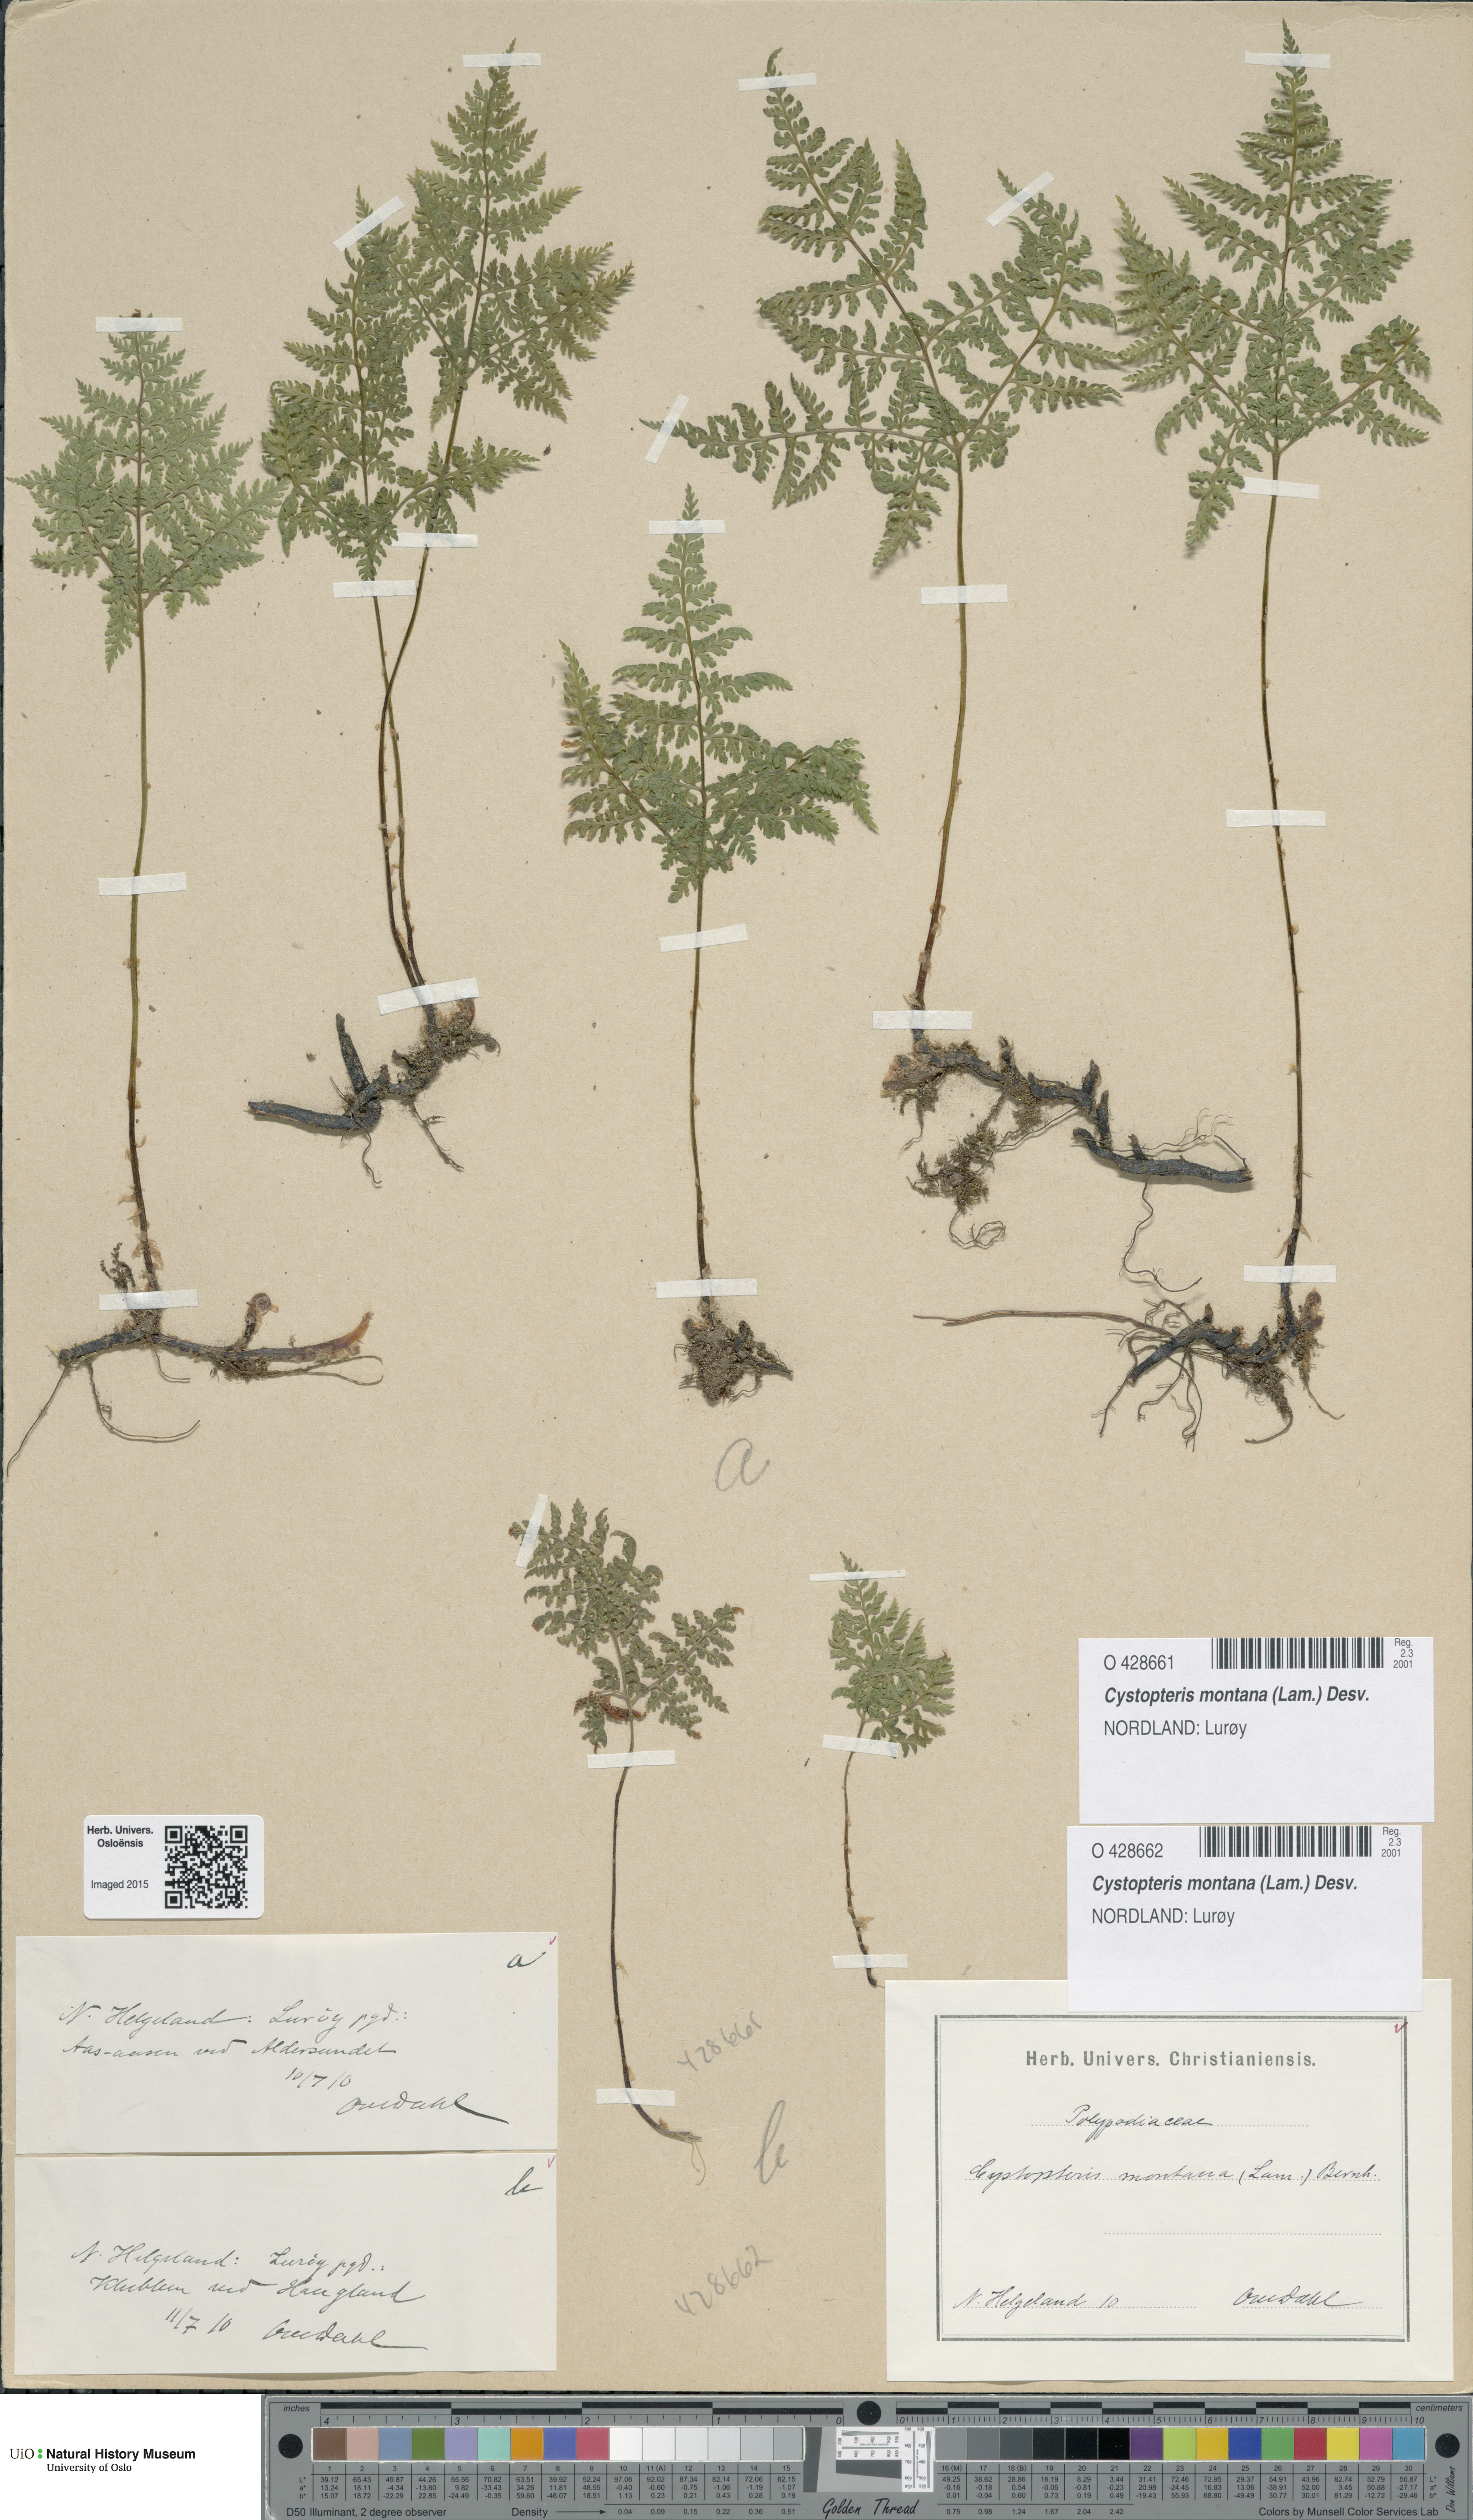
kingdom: Plantae
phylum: Tracheophyta
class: Polypodiopsida
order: Polypodiales
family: Cystopteridaceae
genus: Cystopteris
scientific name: Cystopteris montana
